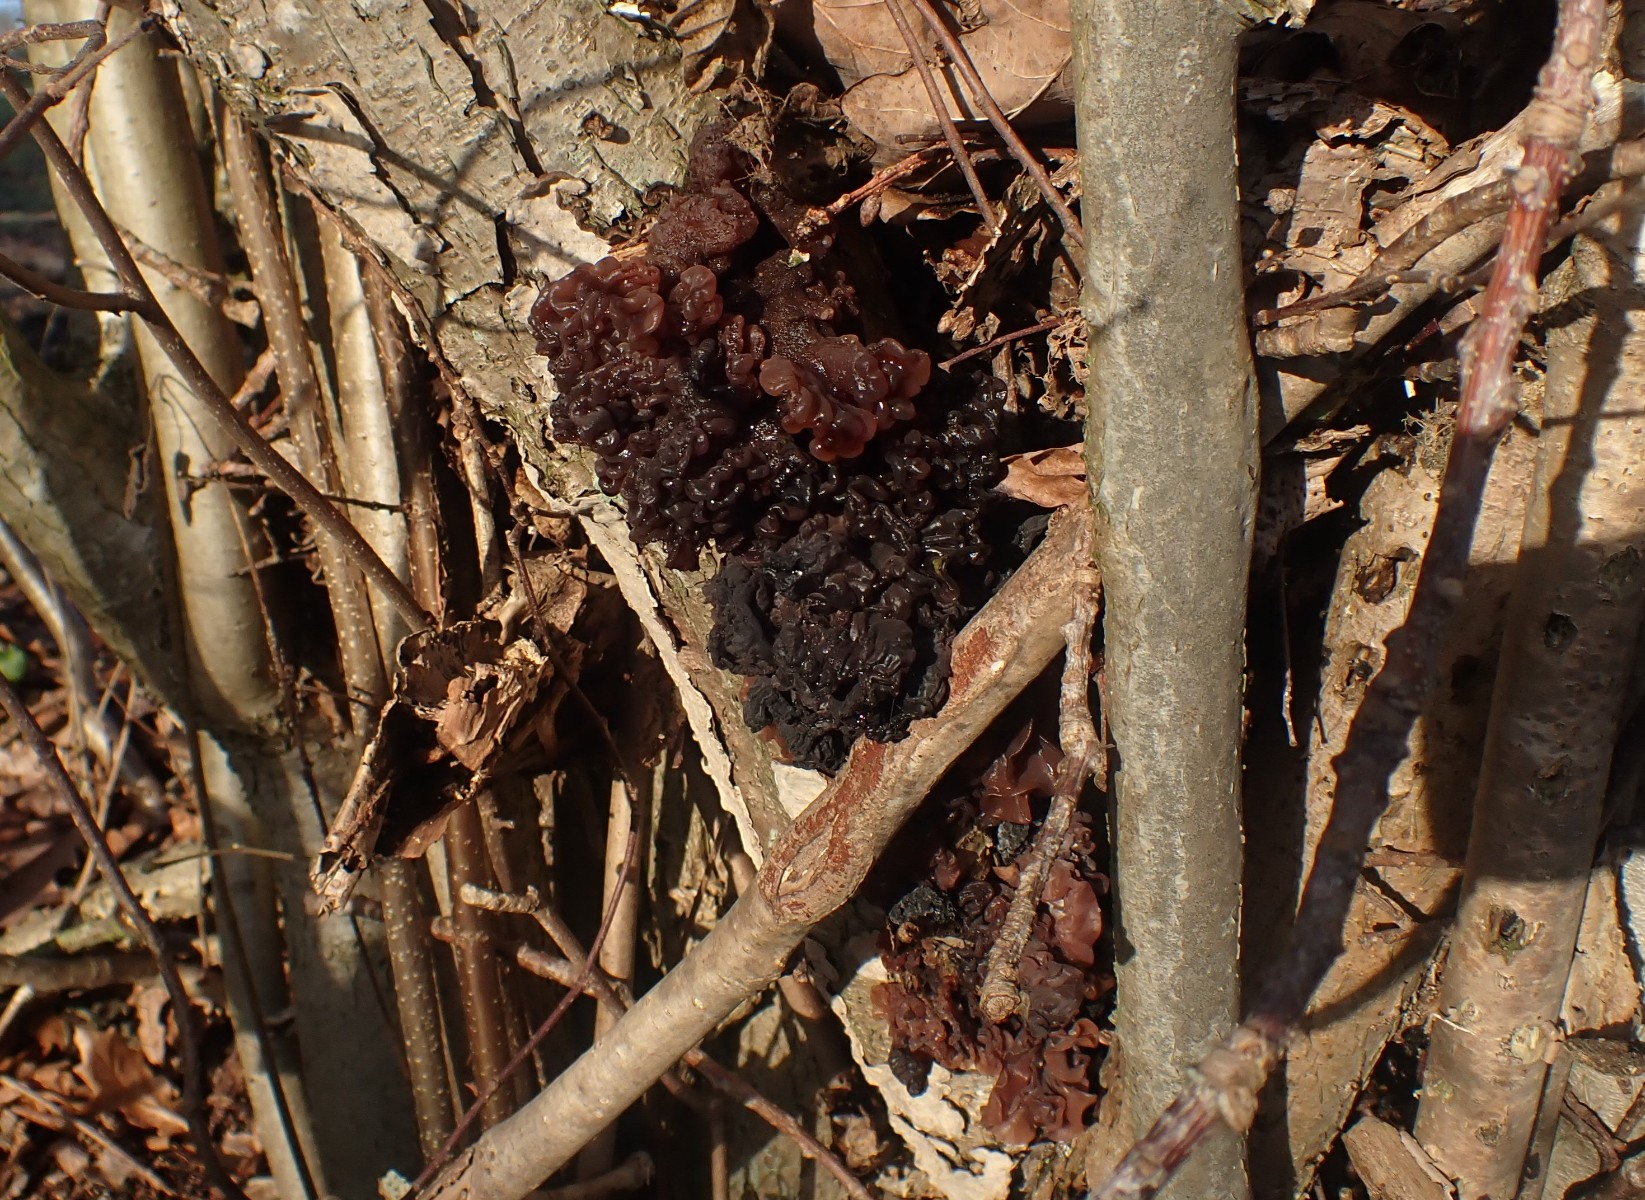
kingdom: Fungi
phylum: Basidiomycota
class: Tremellomycetes
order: Tremellales
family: Tremellaceae
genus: Phaeotremella
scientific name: Phaeotremella frondosa
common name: kæmpe-bævresvamp
